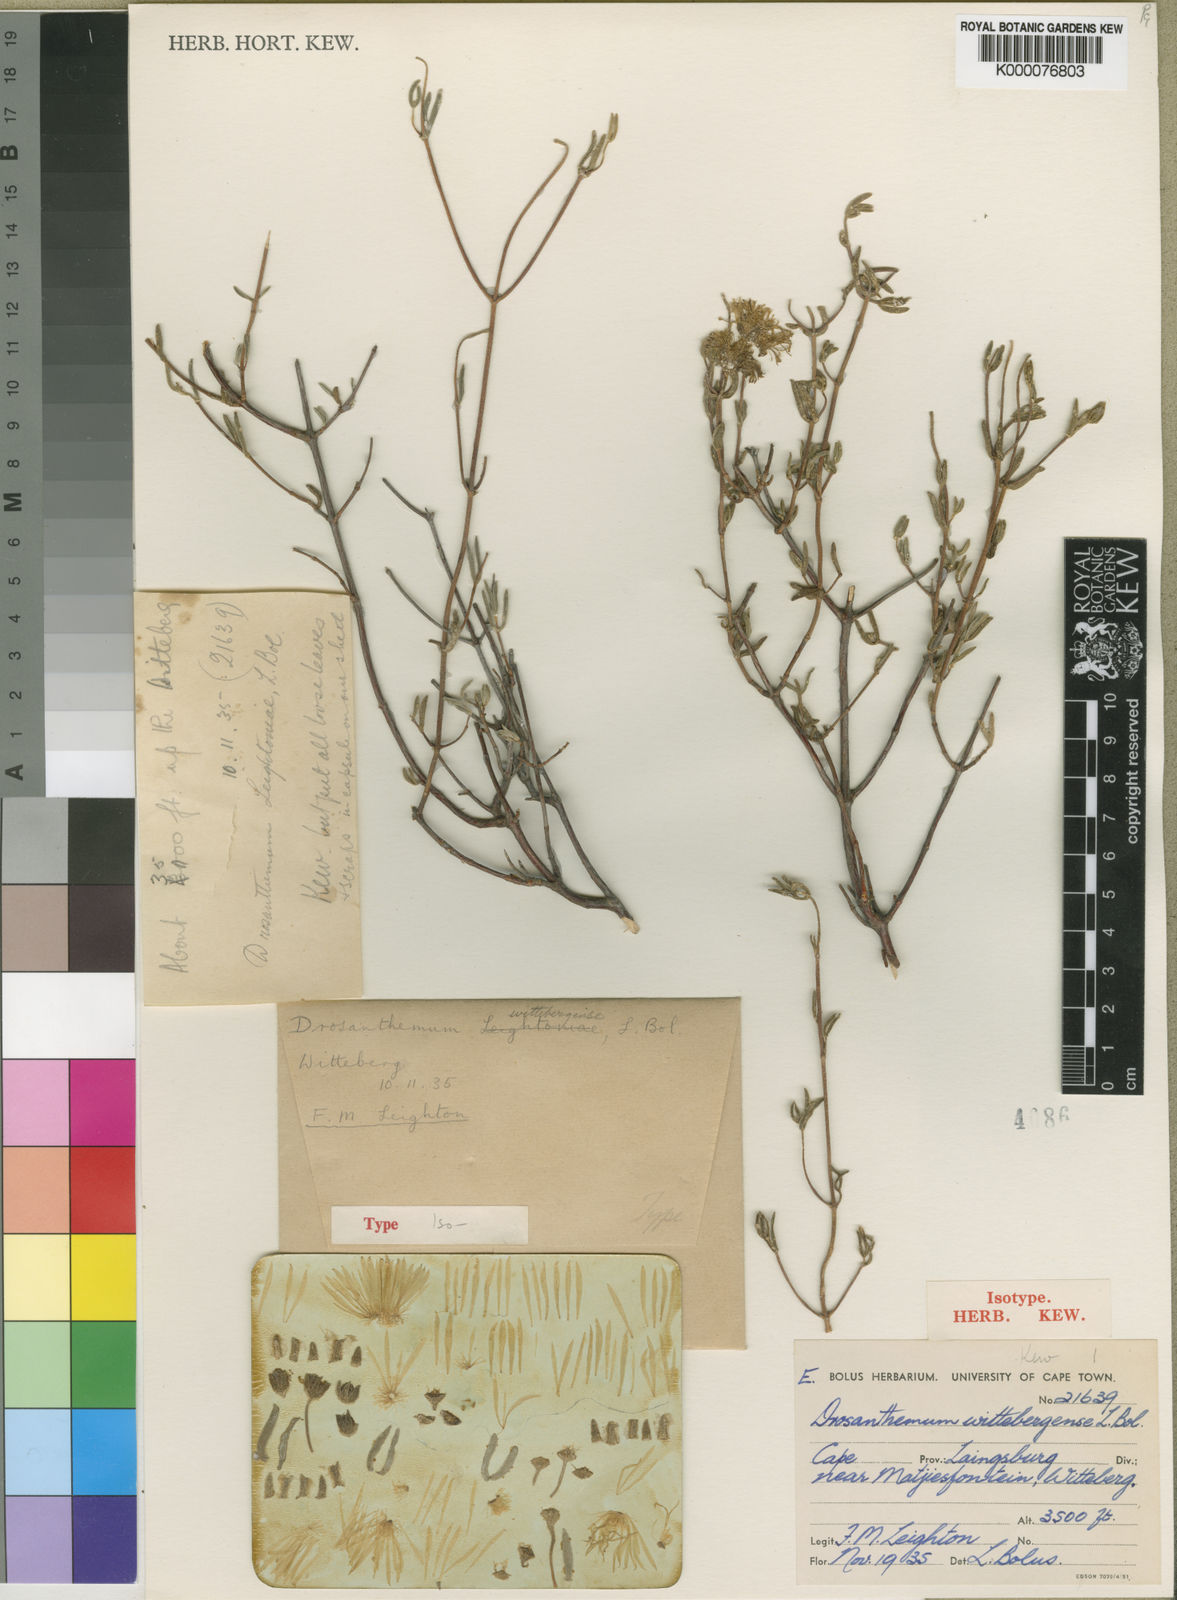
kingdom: Plantae
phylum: Tracheophyta
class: Magnoliopsida
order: Caryophyllales
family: Aizoaceae
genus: Drosanthemum
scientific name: Drosanthemum wittebergense
